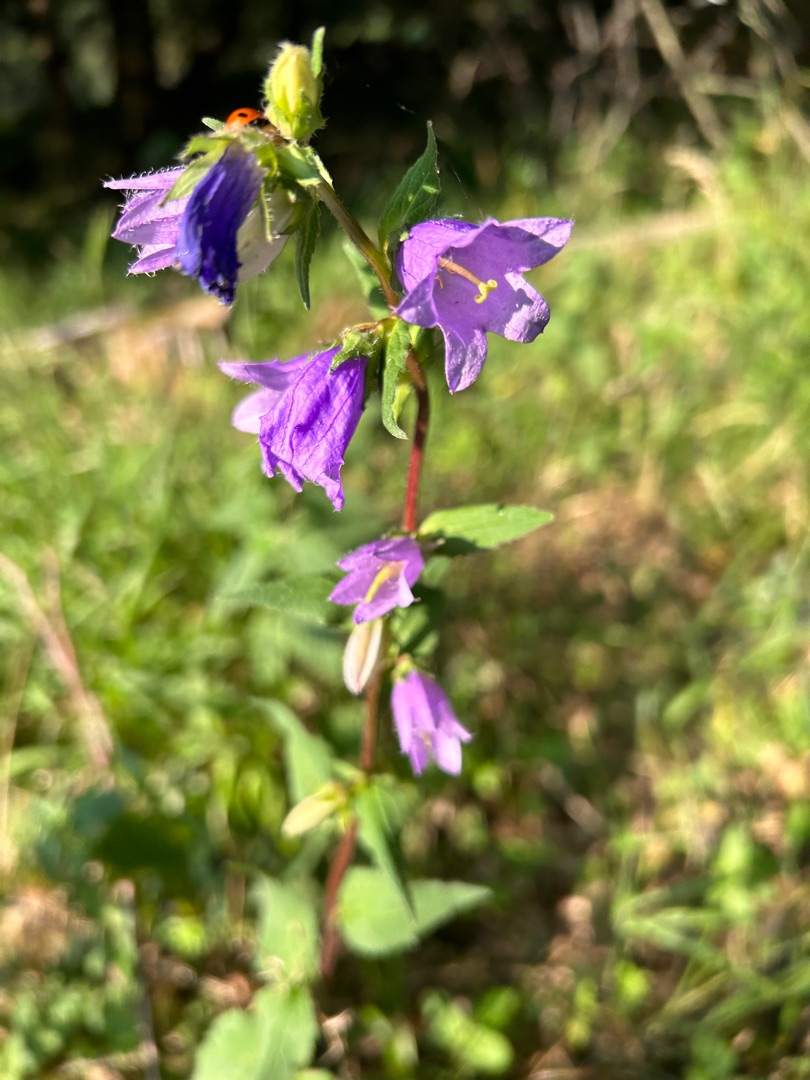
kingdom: Plantae
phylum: Tracheophyta
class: Magnoliopsida
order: Asterales
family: Campanulaceae
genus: Campanula
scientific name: Campanula trachelium
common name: Nælde-klokke
